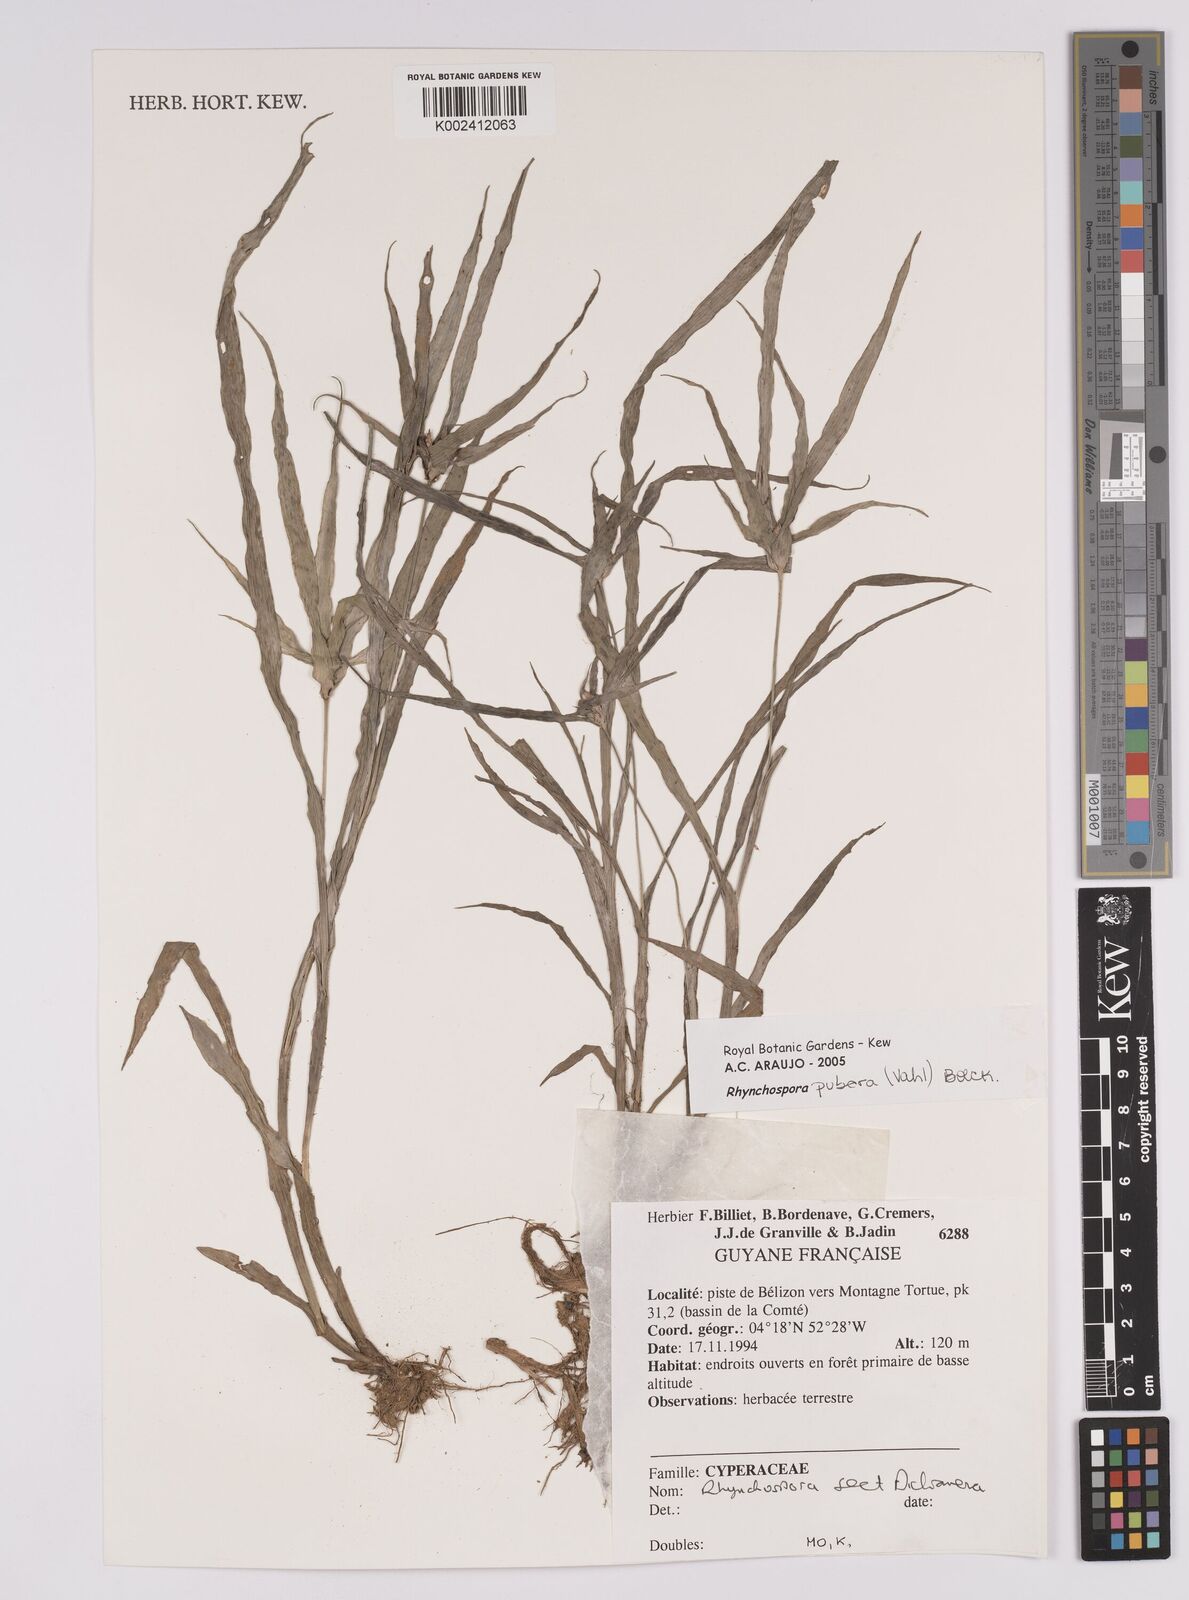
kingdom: Plantae
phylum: Tracheophyta
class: Liliopsida
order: Poales
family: Cyperaceae
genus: Rhynchospora
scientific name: Rhynchospora pubera
